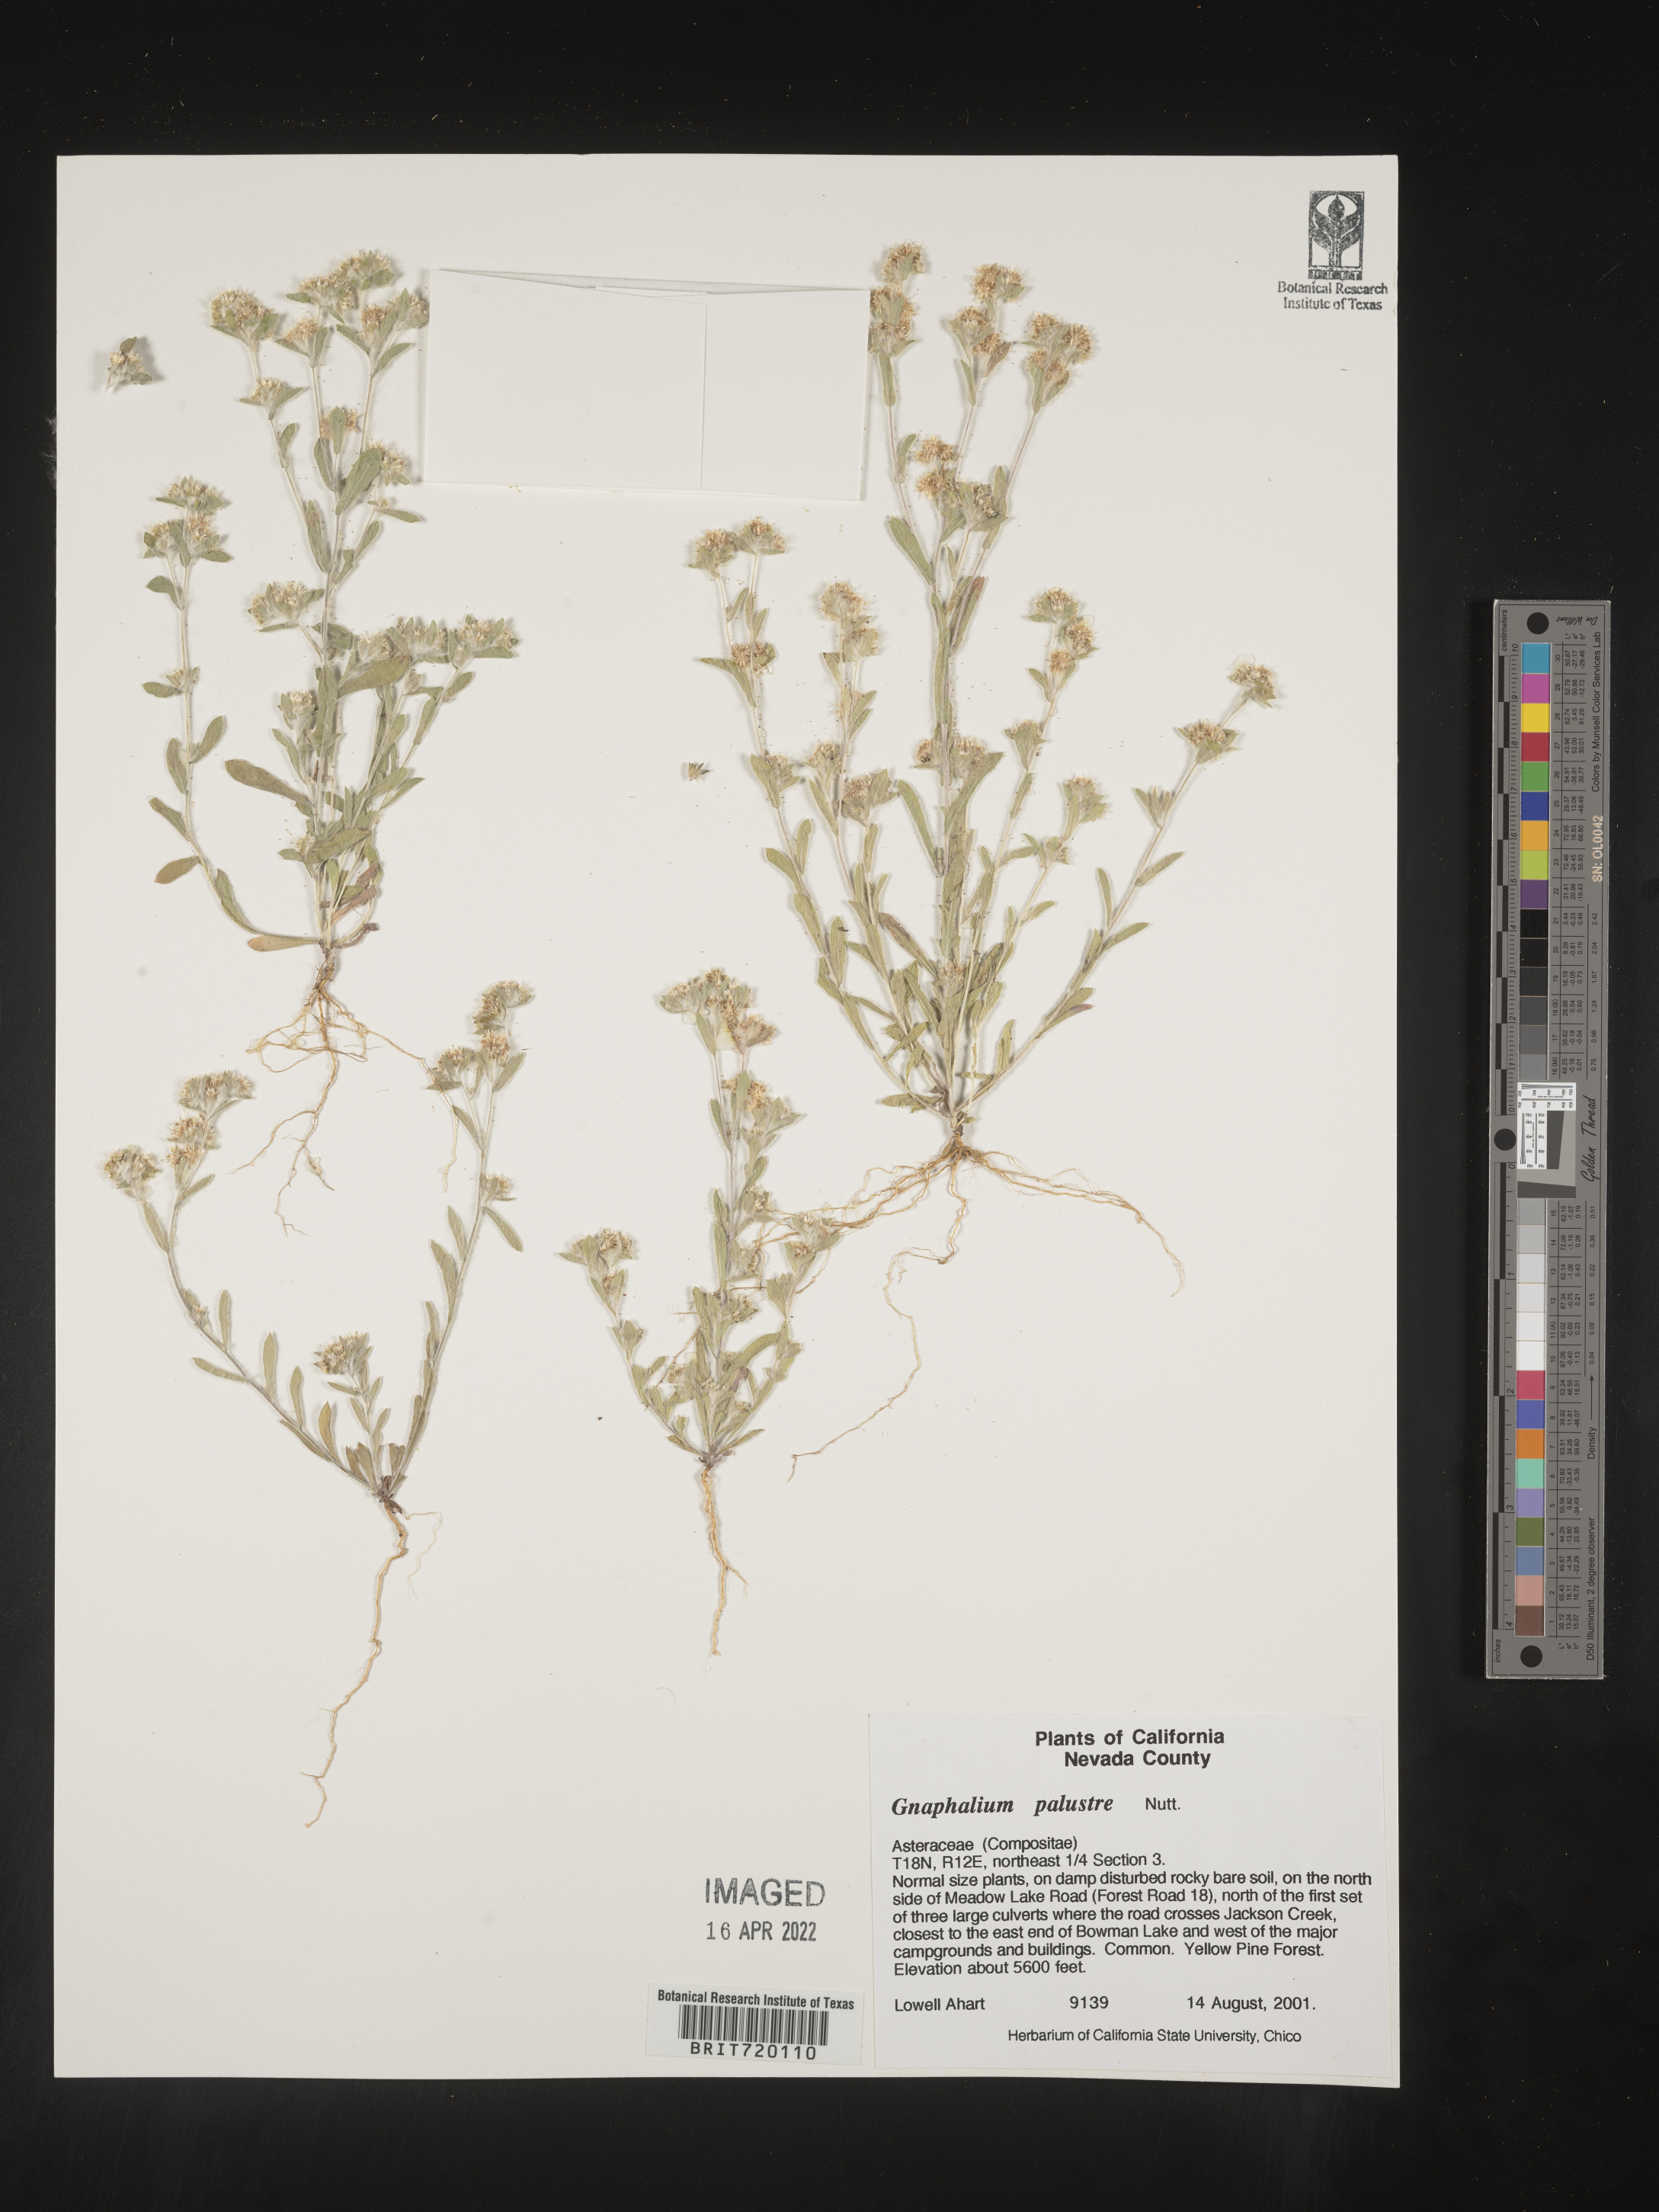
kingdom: Plantae
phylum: Tracheophyta
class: Magnoliopsida
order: Asterales
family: Asteraceae
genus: Gnaphalium
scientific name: Gnaphalium palustre
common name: Western marsh cudweed
